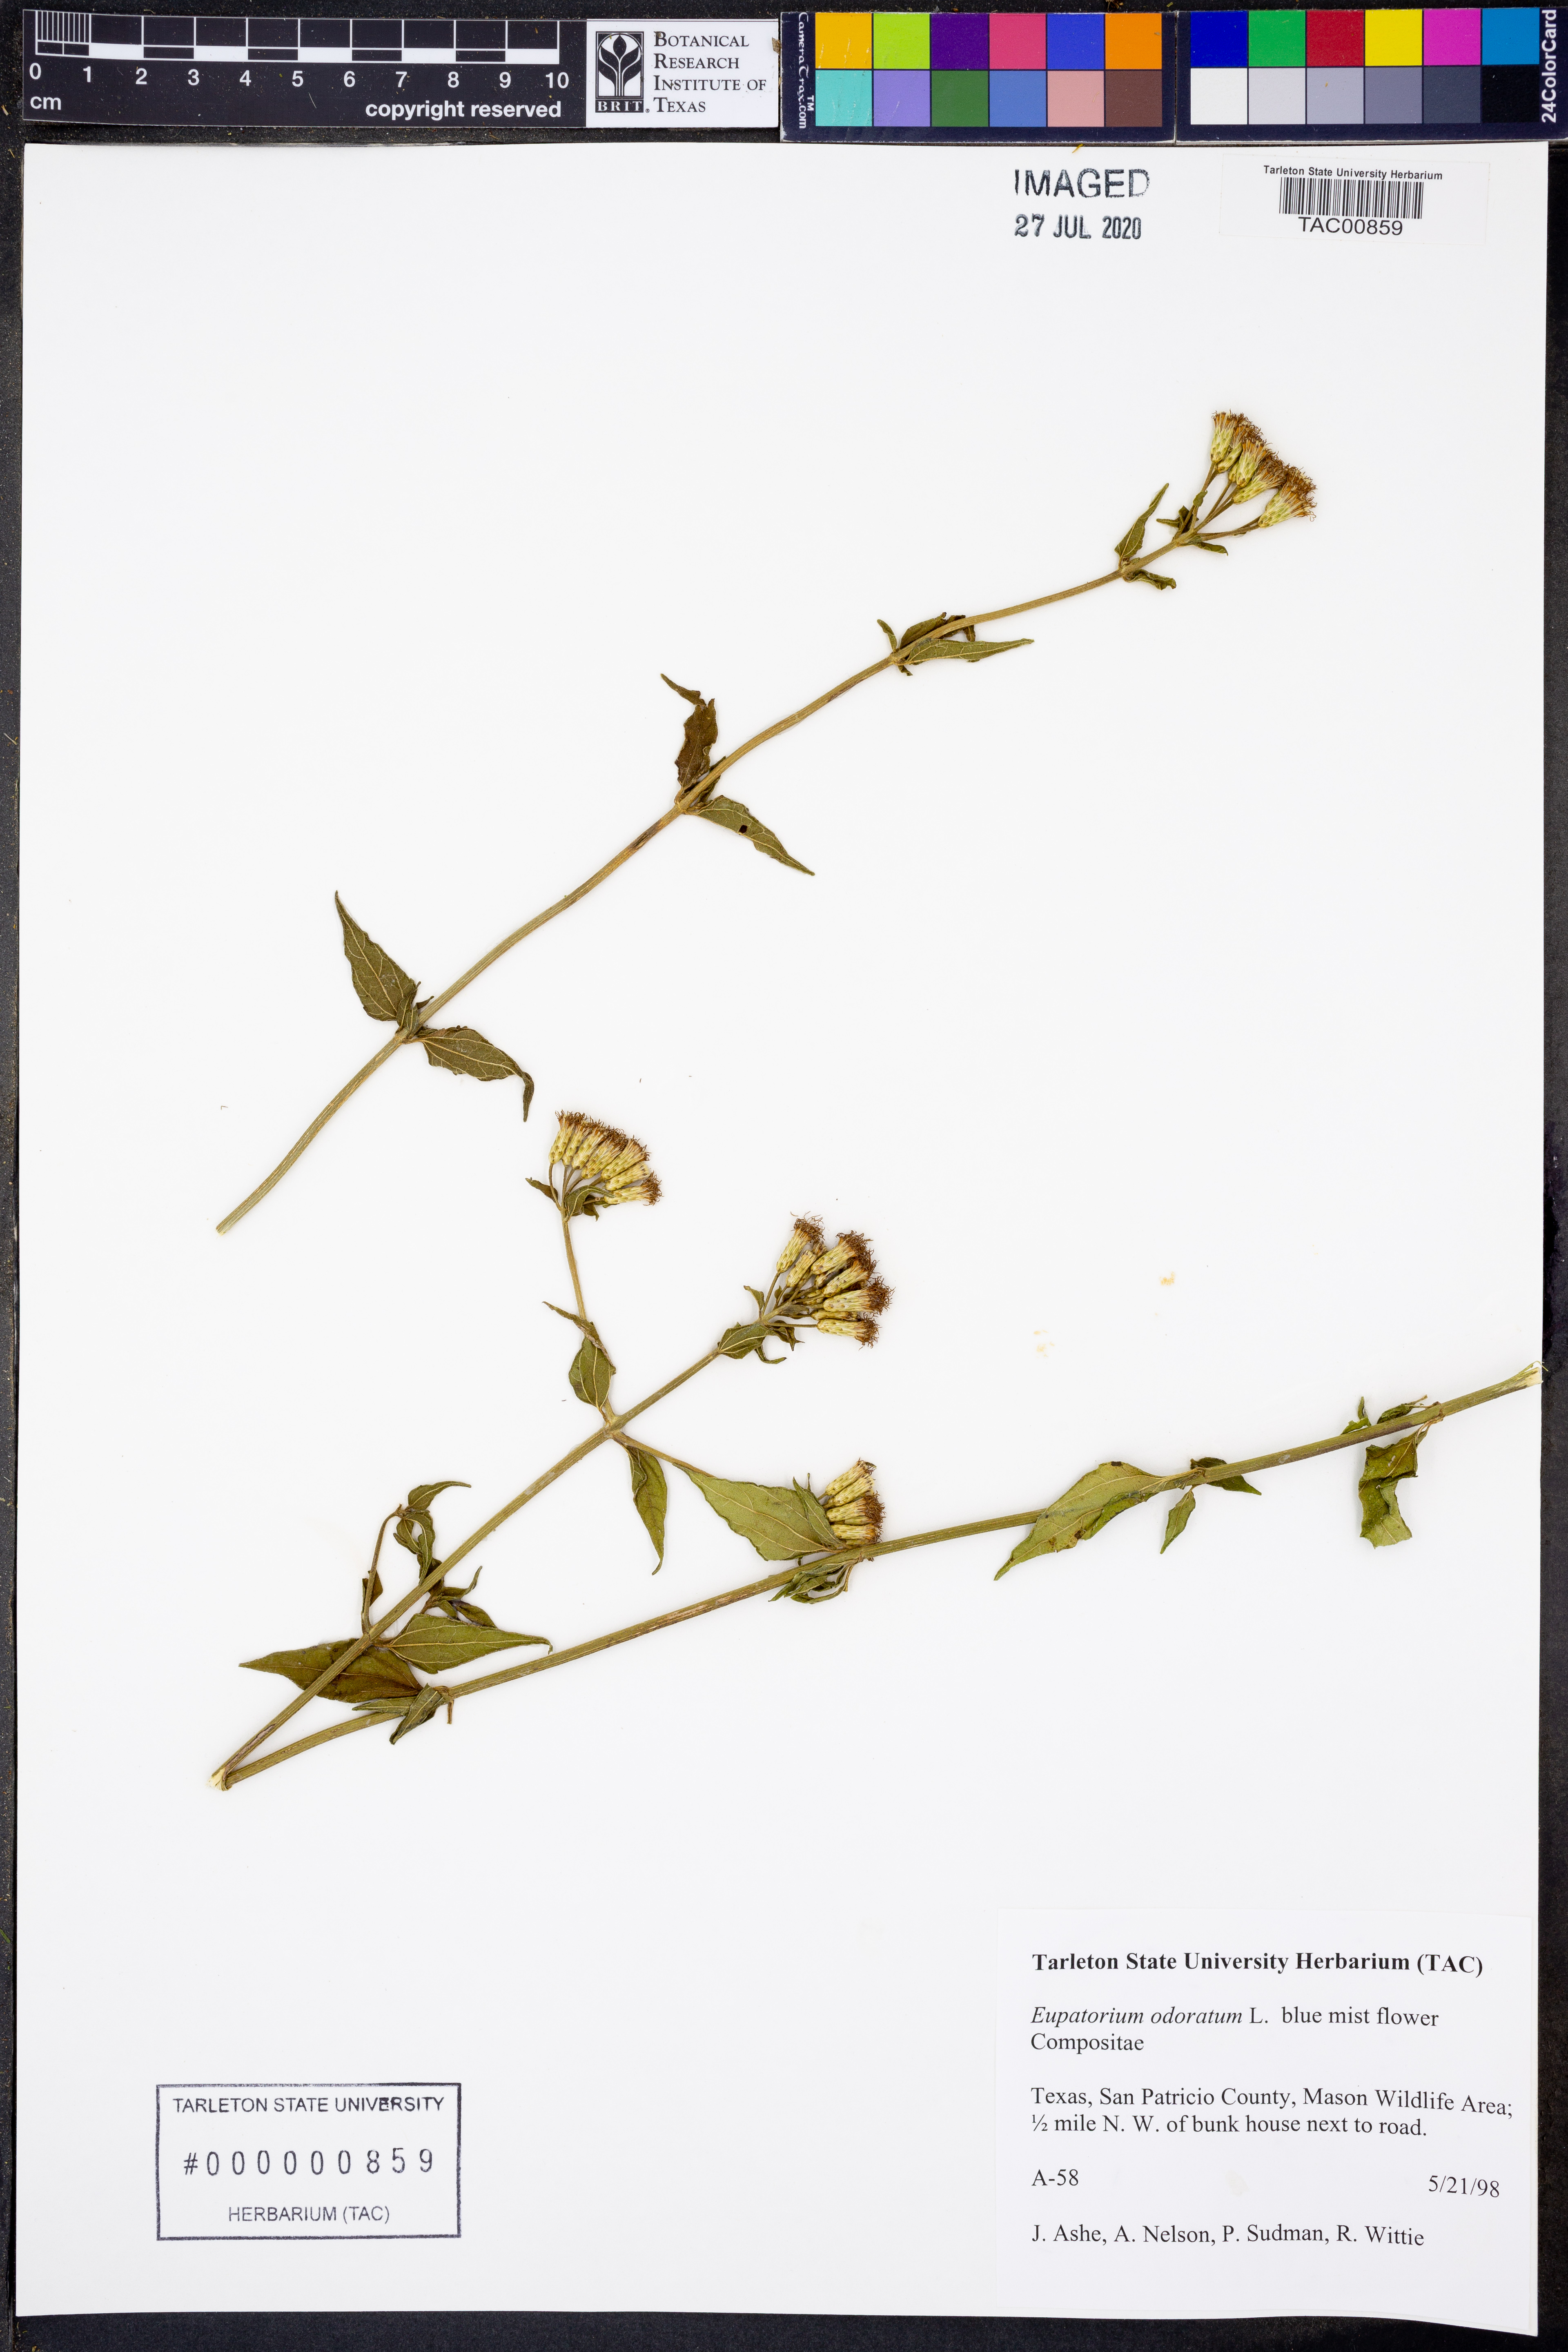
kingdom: Plantae
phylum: Tracheophyta
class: Magnoliopsida
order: Asterales
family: Asteraceae
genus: Ageratina
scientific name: Ageratina altissima
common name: White snakeroot
